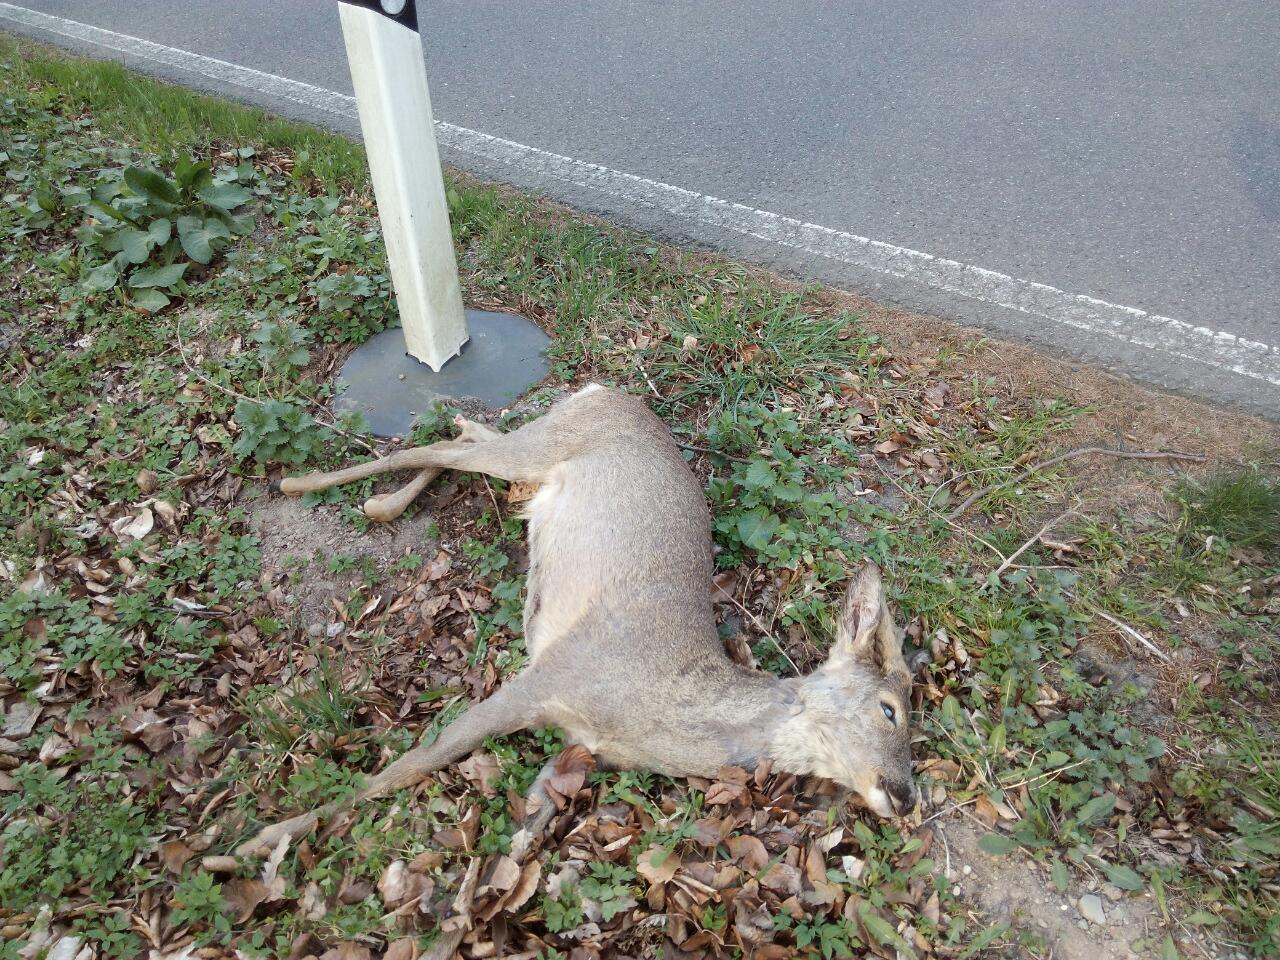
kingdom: Animalia
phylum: Chordata
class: Mammalia
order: Artiodactyla
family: Cervidae
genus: Capreolus
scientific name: Capreolus capreolus
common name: Western roe deer
